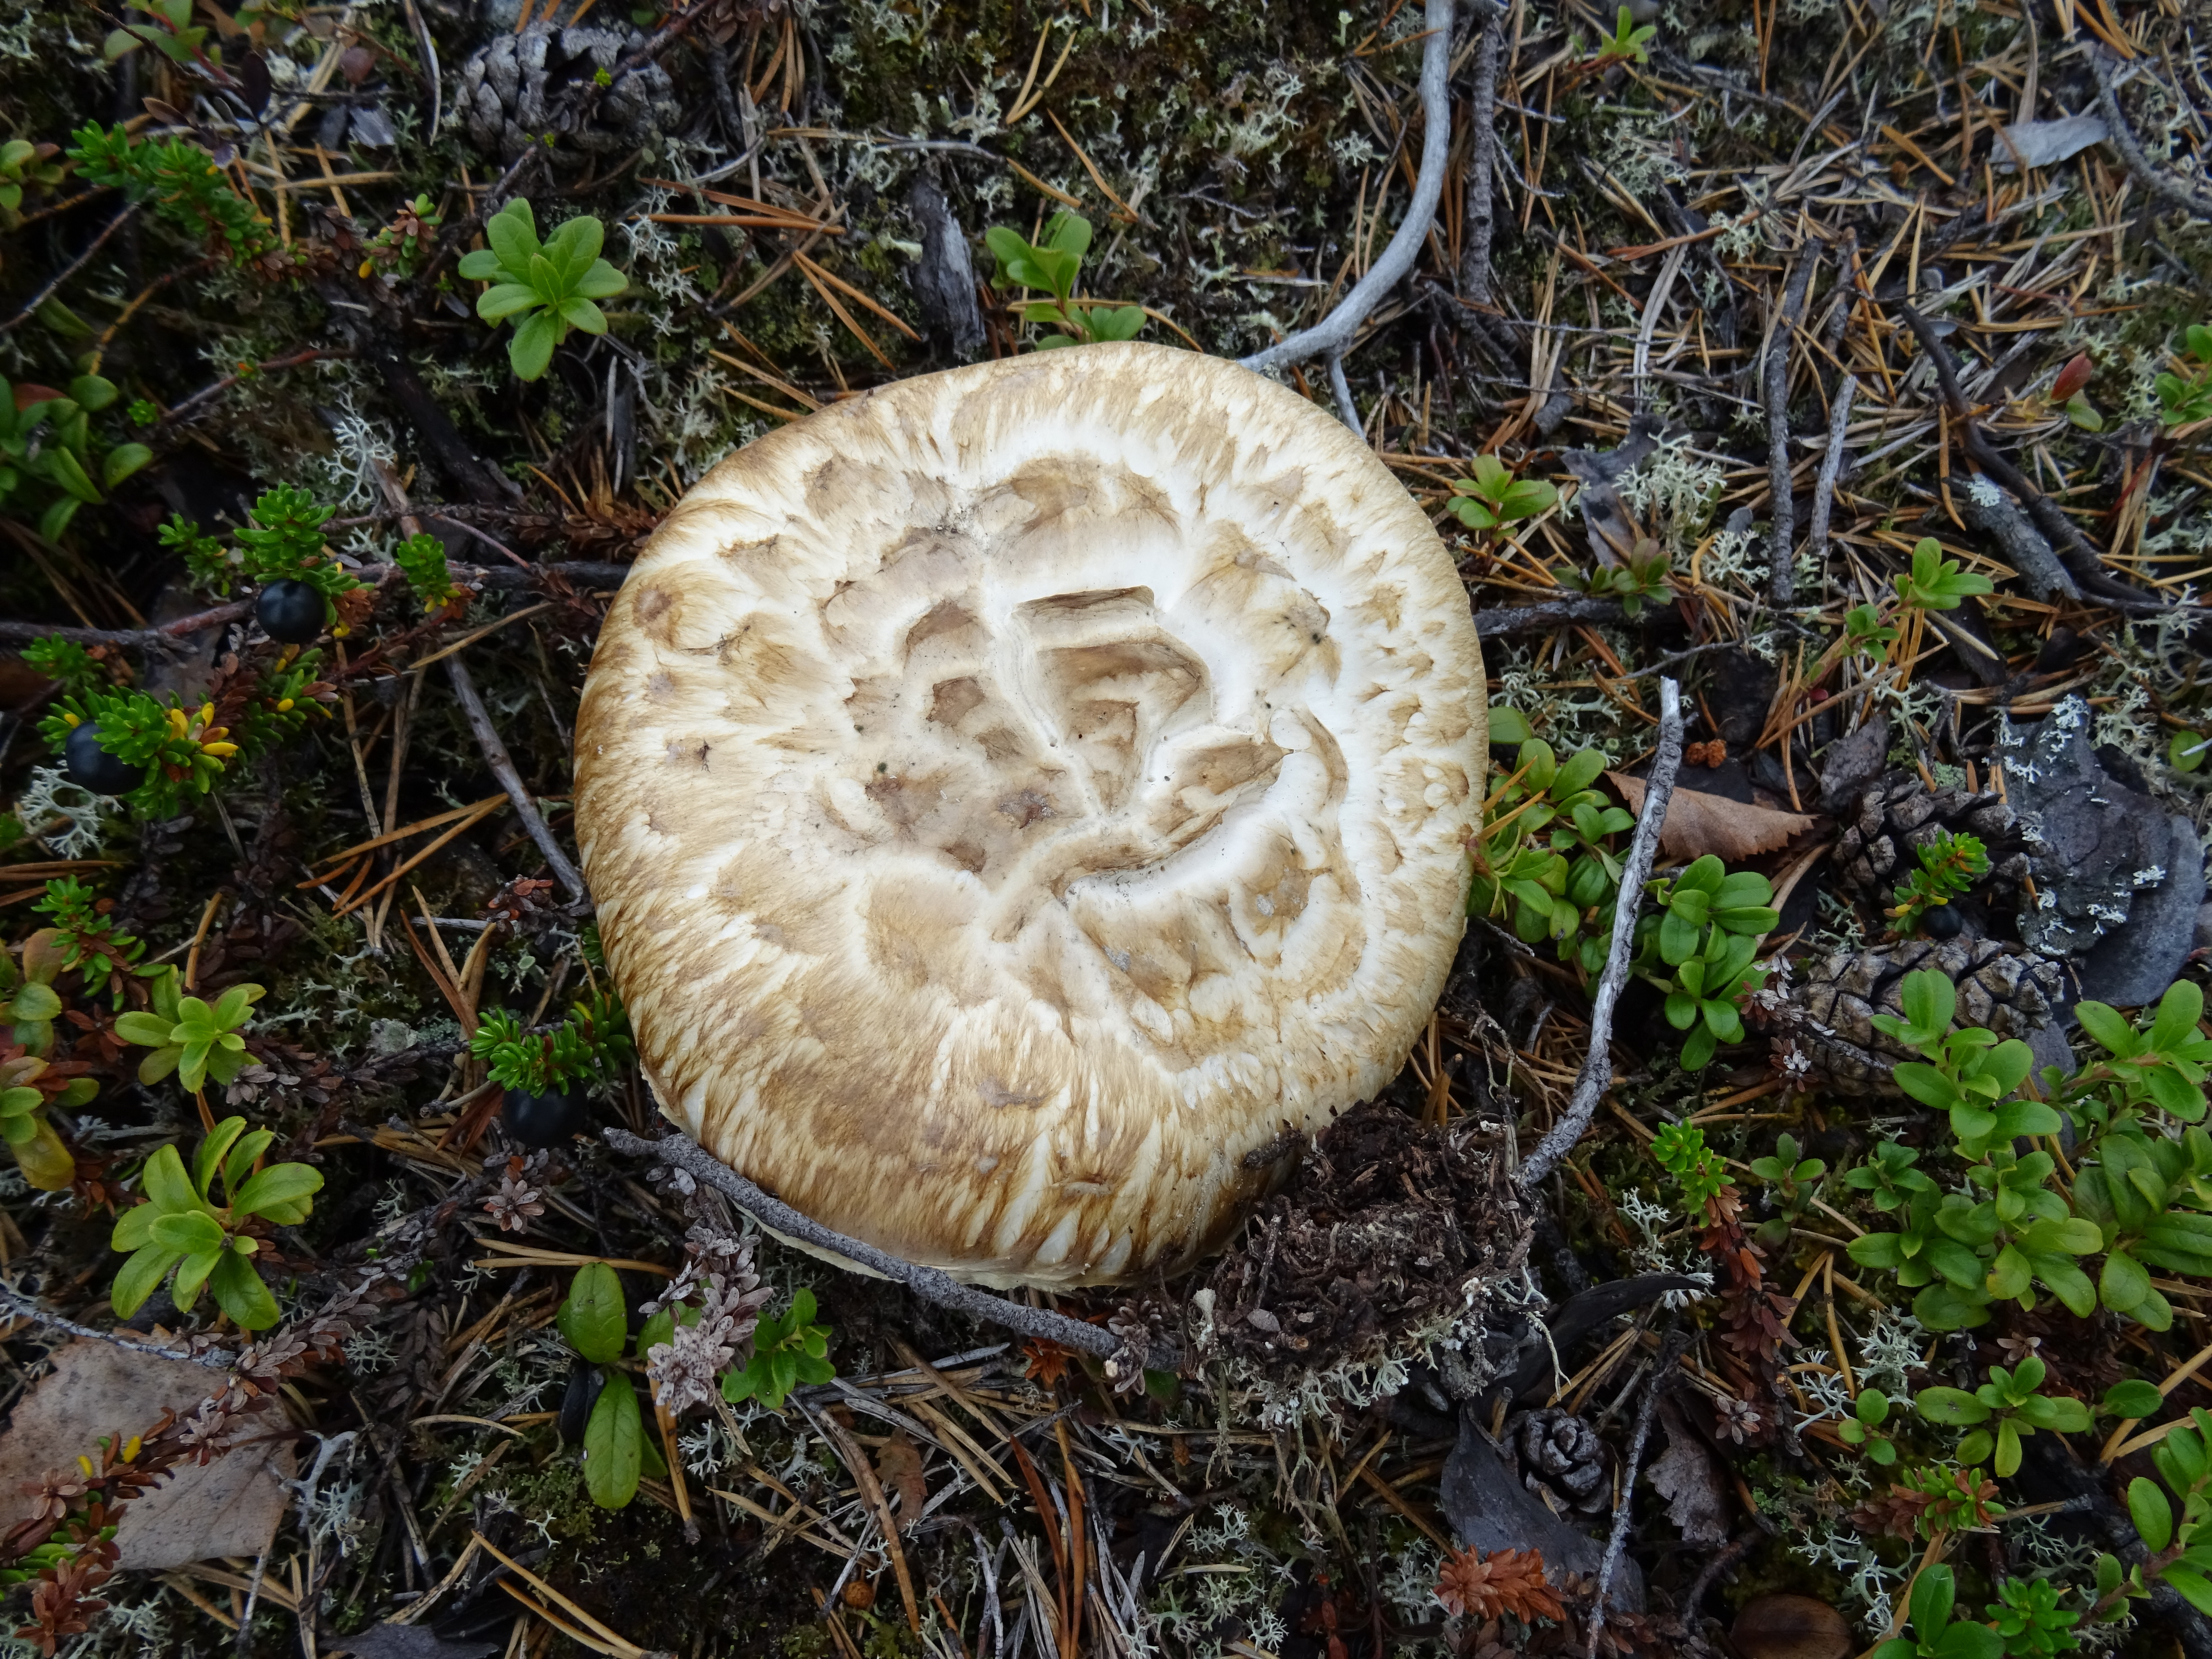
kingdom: Fungi
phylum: Basidiomycota
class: Agaricomycetes
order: Agaricales
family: Tricholomataceae
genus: Tricholoma
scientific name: Tricholoma matsutake
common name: Matsutake
